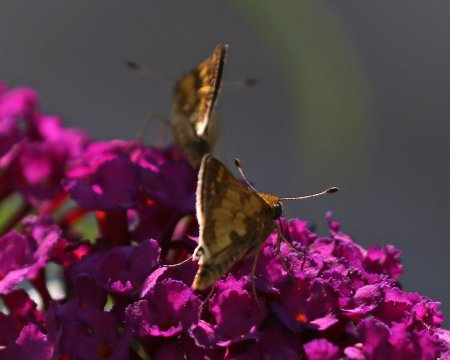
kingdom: Animalia
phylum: Arthropoda
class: Insecta
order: Lepidoptera
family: Hesperiidae
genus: Polites
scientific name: Polites coras
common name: Peck's Skipper
